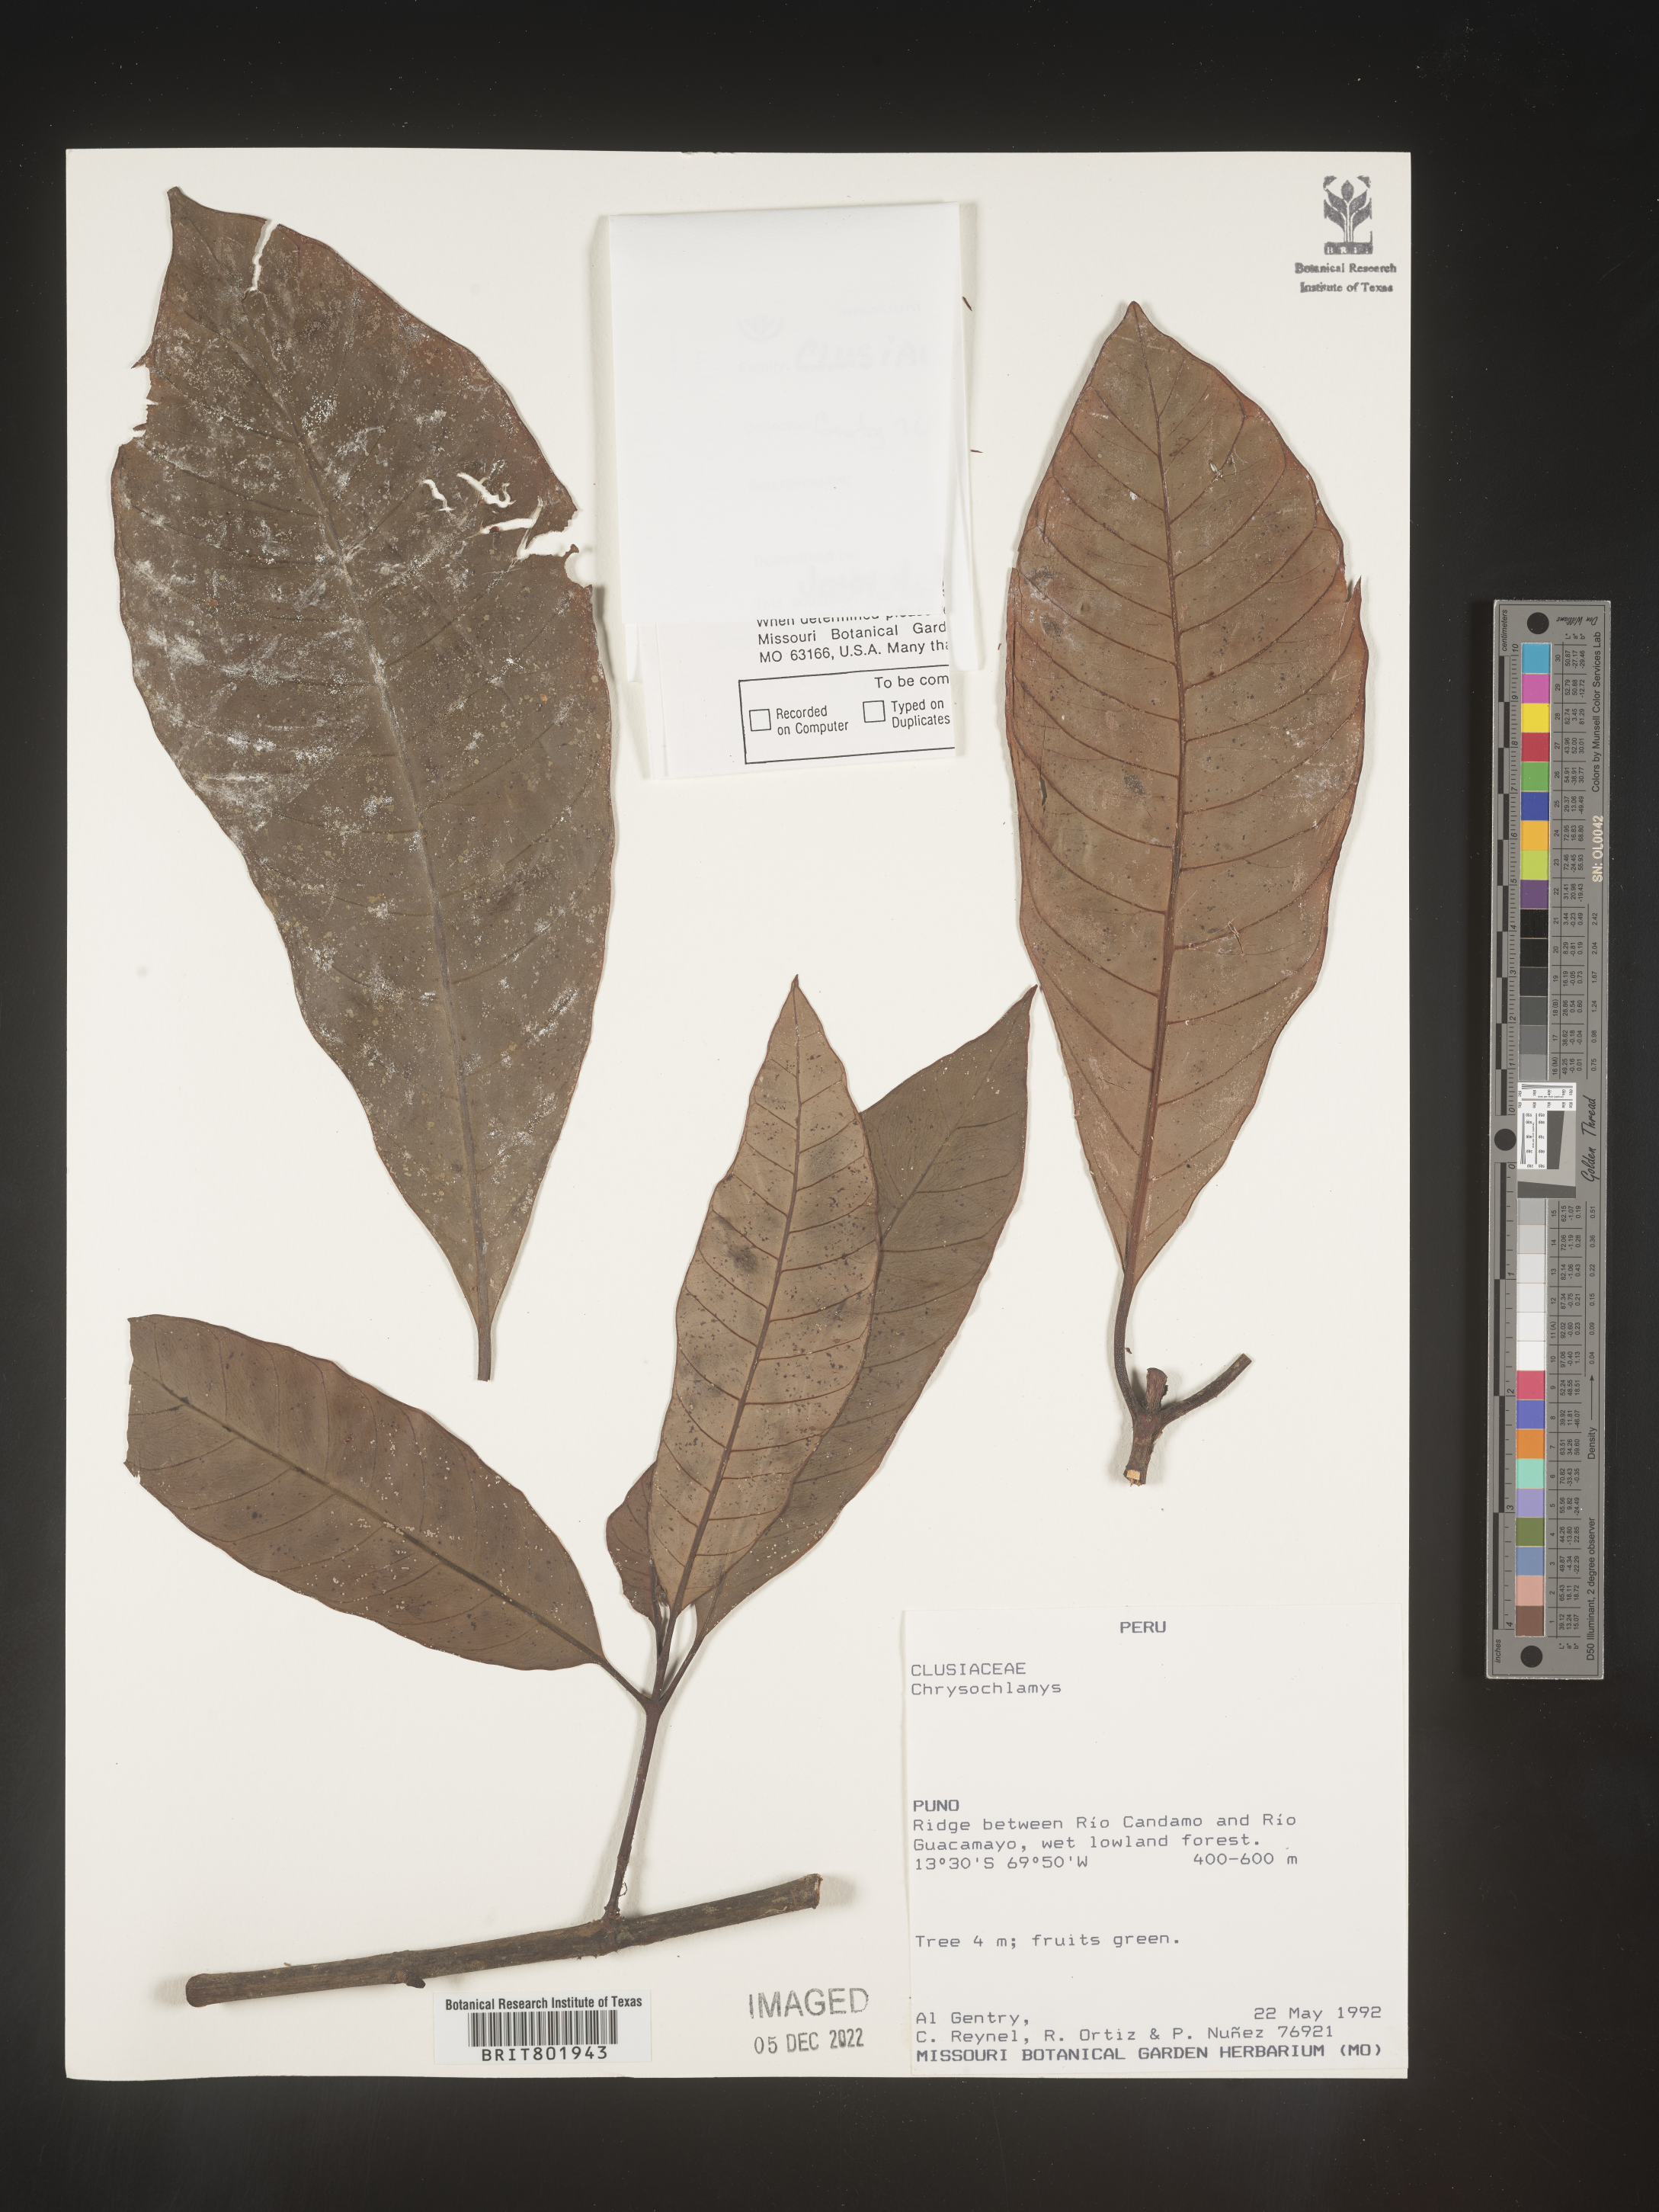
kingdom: Plantae
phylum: Tracheophyta
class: Magnoliopsida
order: Malpighiales
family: Clusiaceae
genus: Chrysochlamys
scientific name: Chrysochlamys
